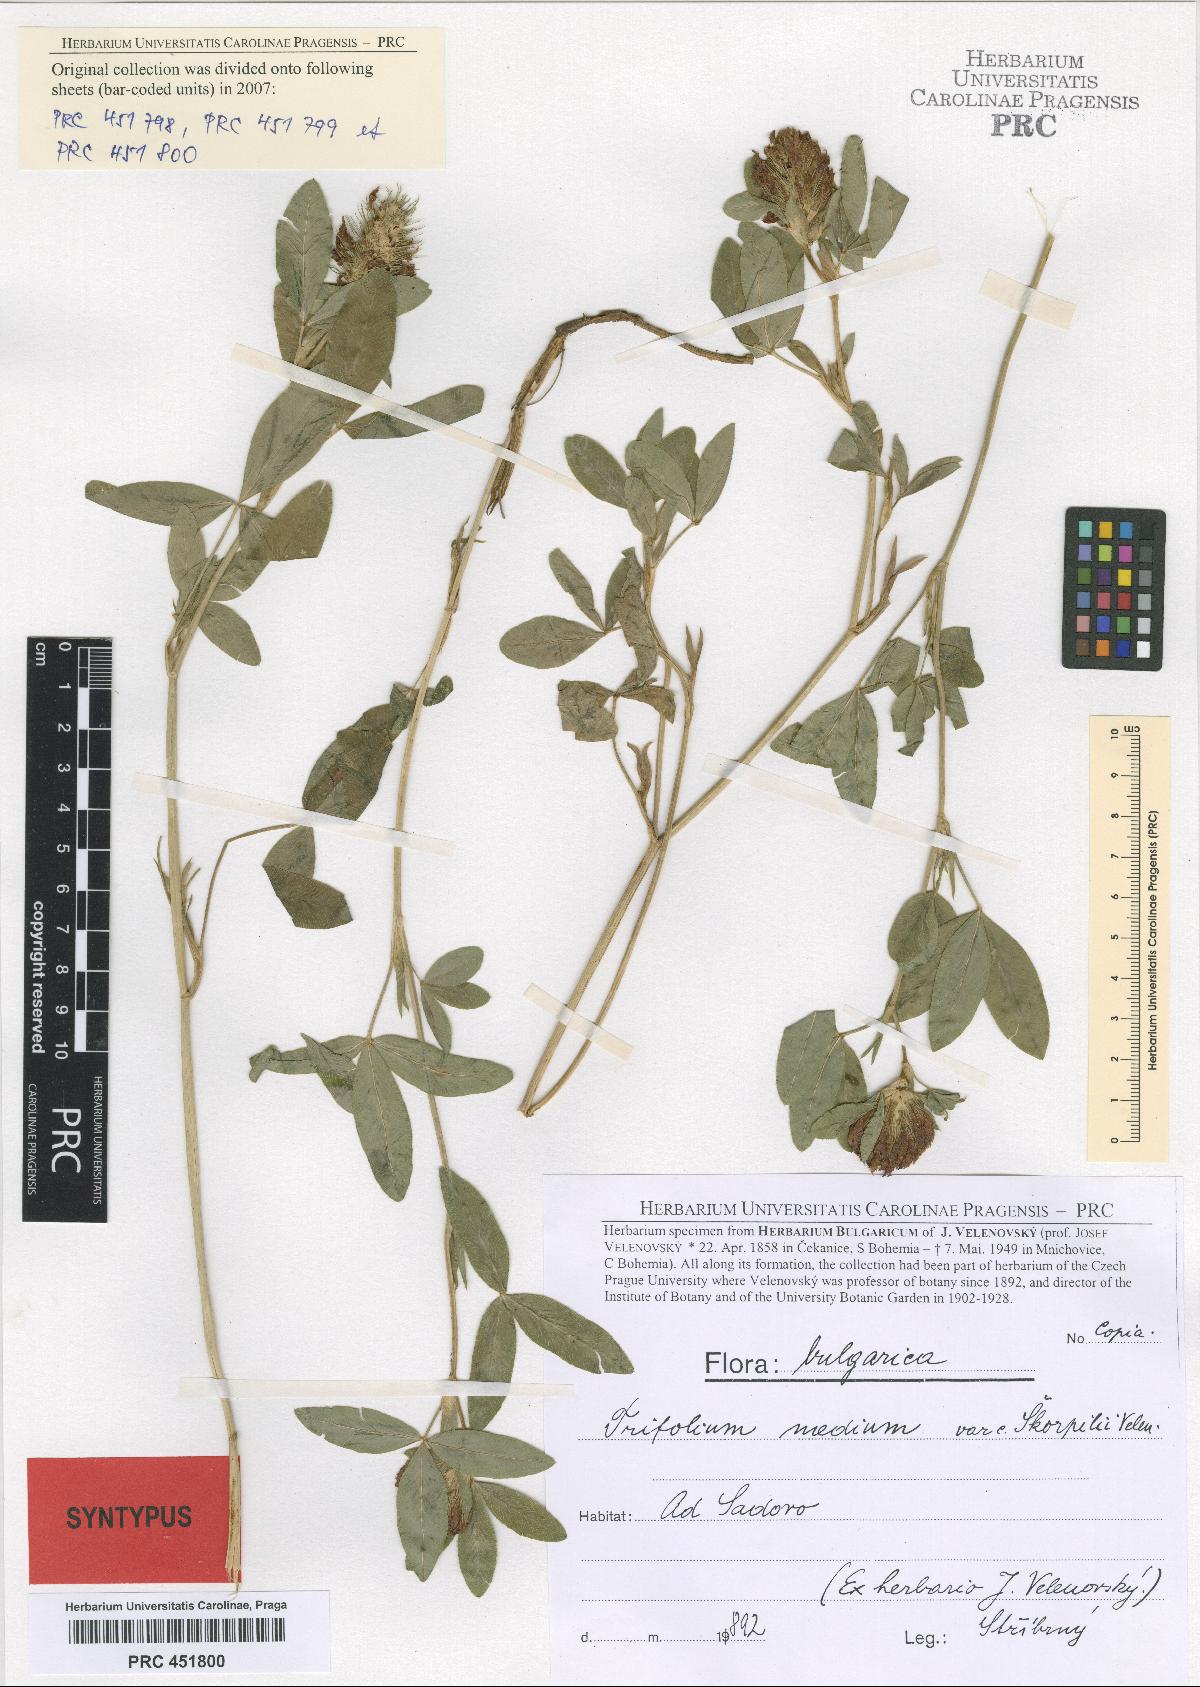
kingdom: Plantae
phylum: Tracheophyta
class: Magnoliopsida
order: Fabales
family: Fabaceae
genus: Trifolium
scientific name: Trifolium medium
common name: Zigzag clover
